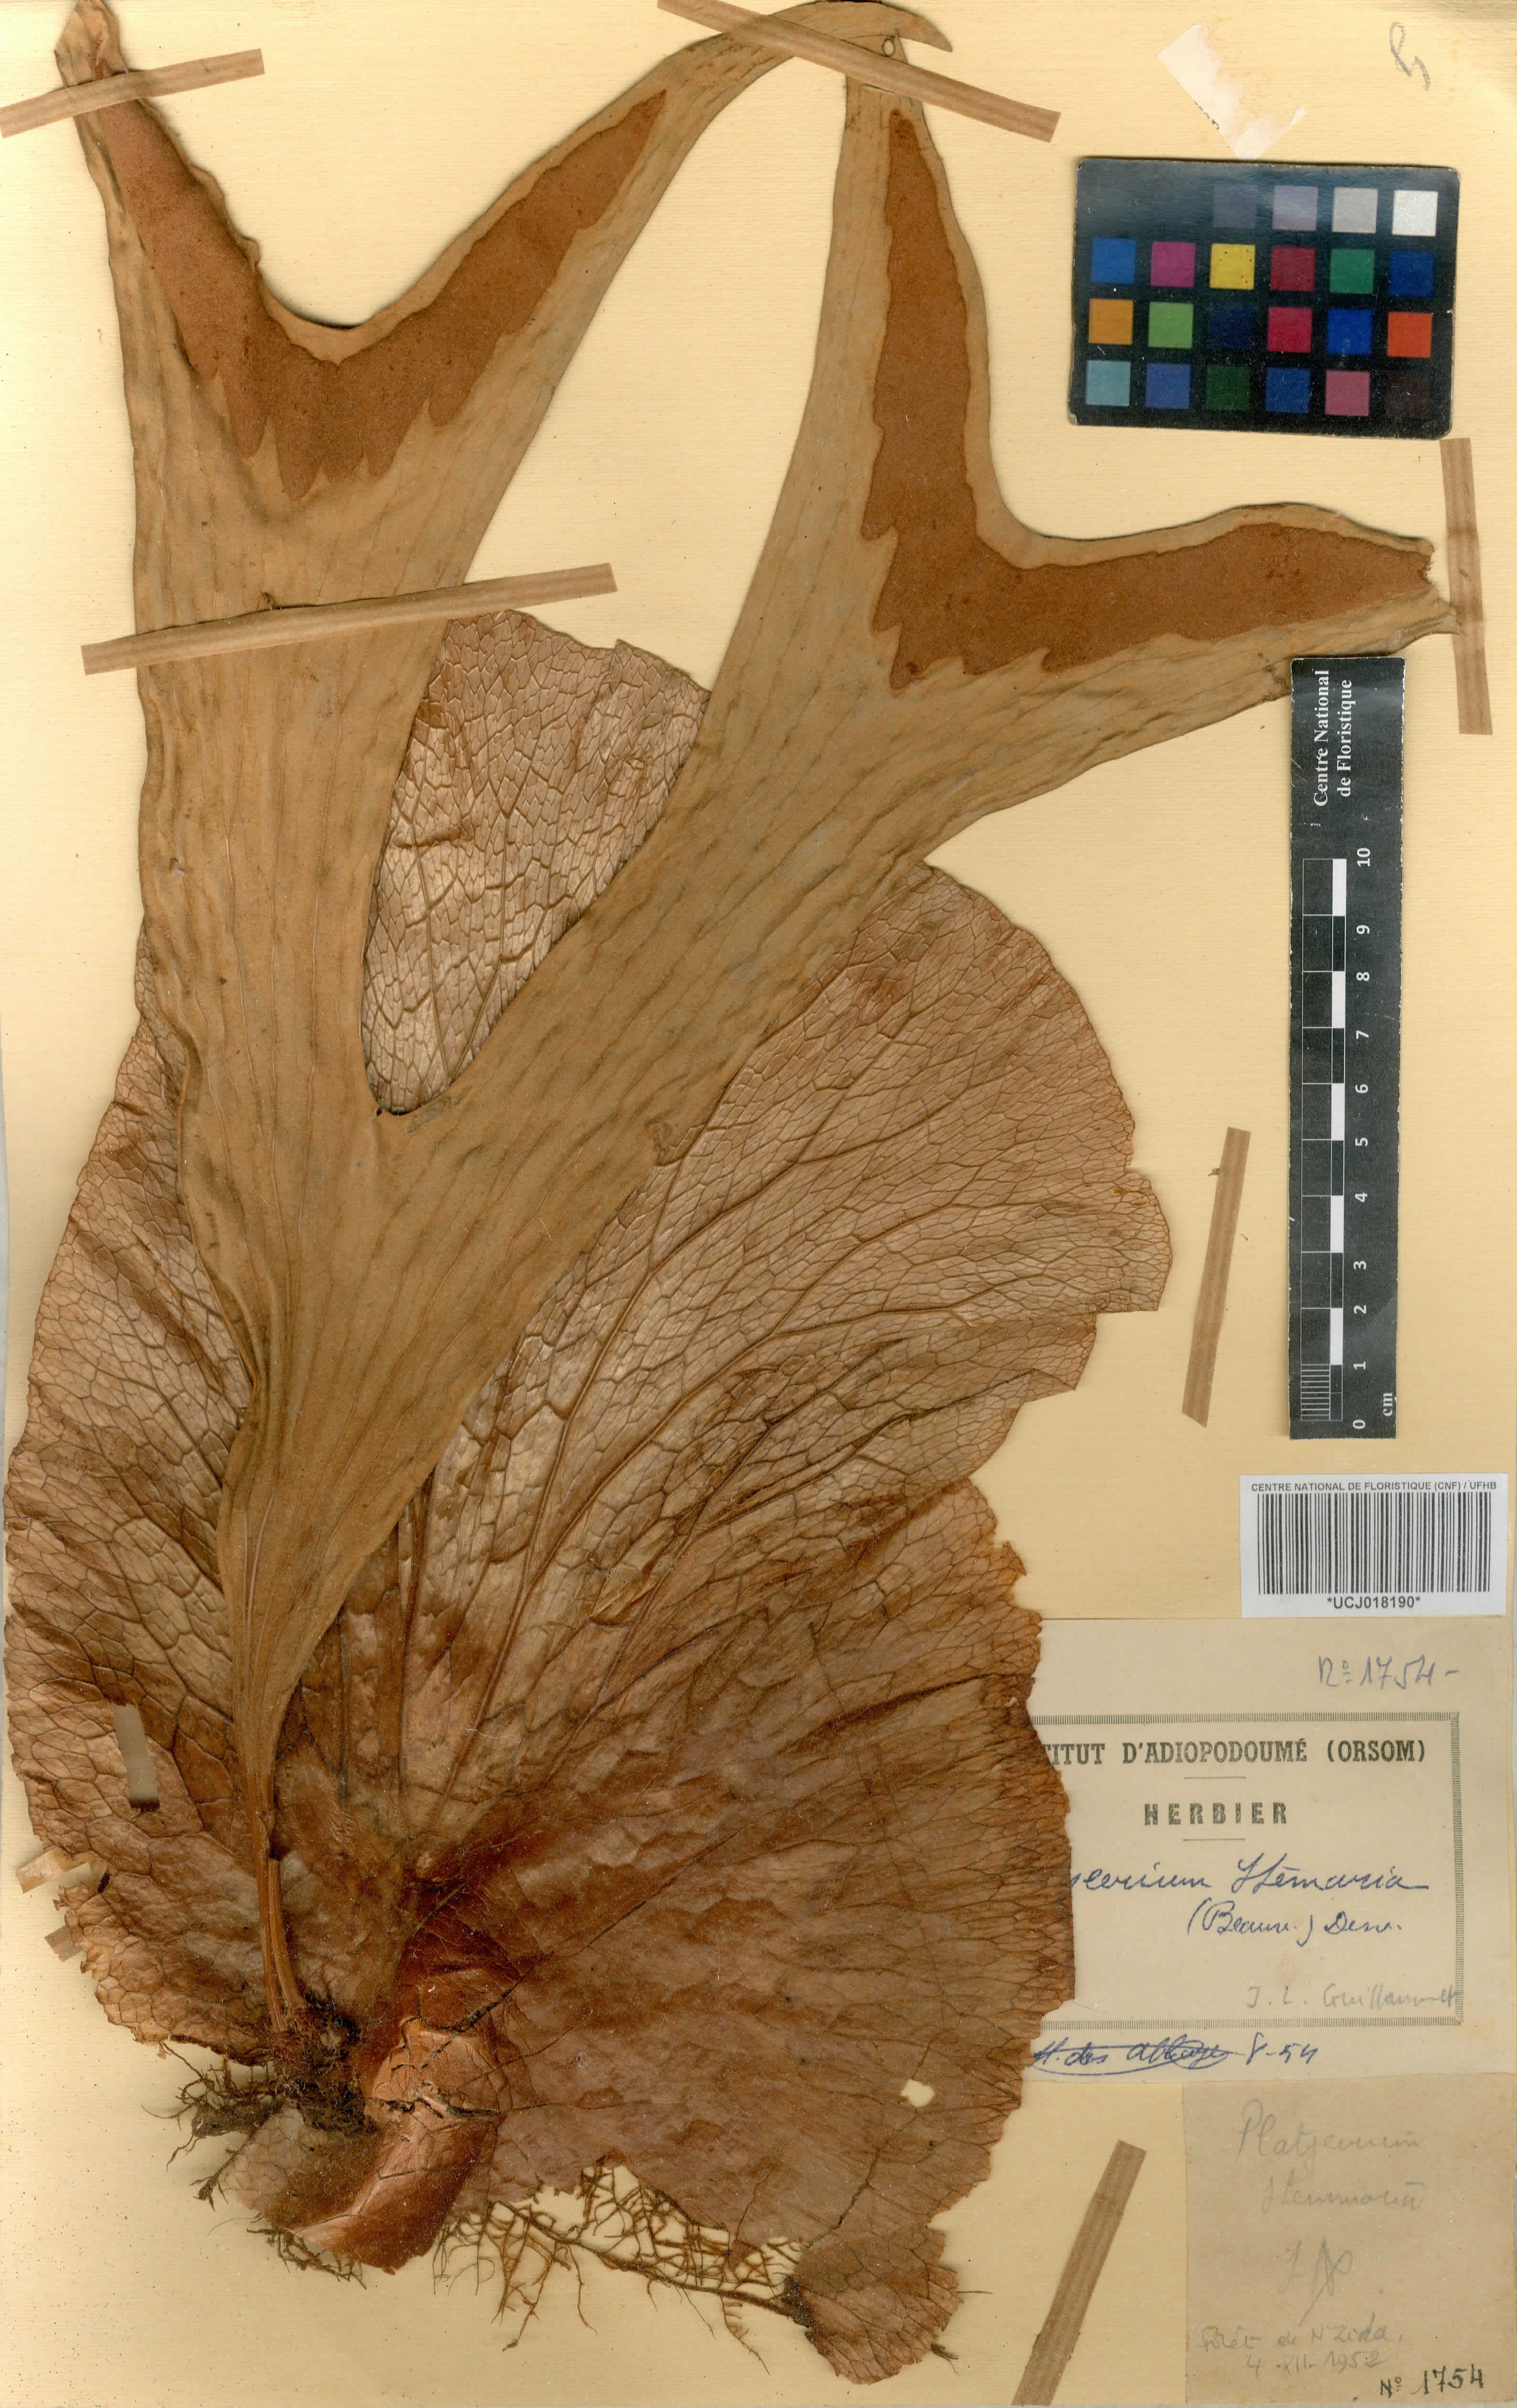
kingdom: Plantae
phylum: Tracheophyta
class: Polypodiopsida
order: Polypodiales
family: Polypodiaceae
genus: Platycerium
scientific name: Platycerium stemaria
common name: Triangular staghorn fern
